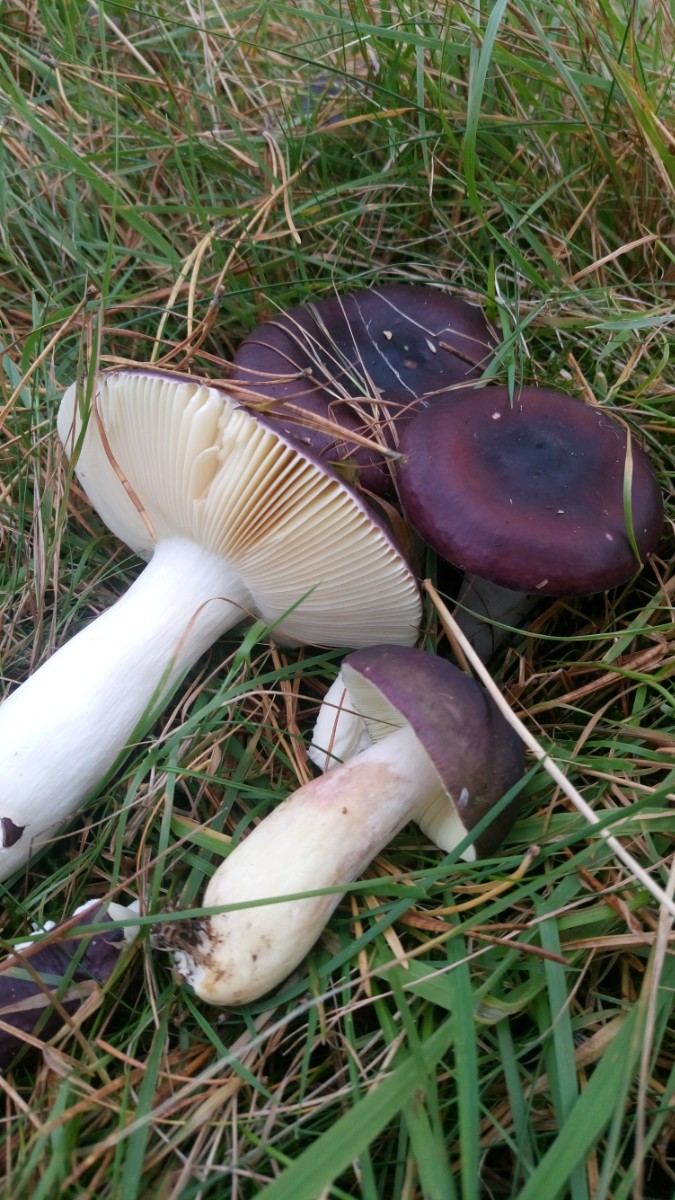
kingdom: Fungi
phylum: Basidiomycota
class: Agaricomycetes
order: Russulales
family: Russulaceae
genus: Russula
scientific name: Russula caerulea
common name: puklet skørhat
